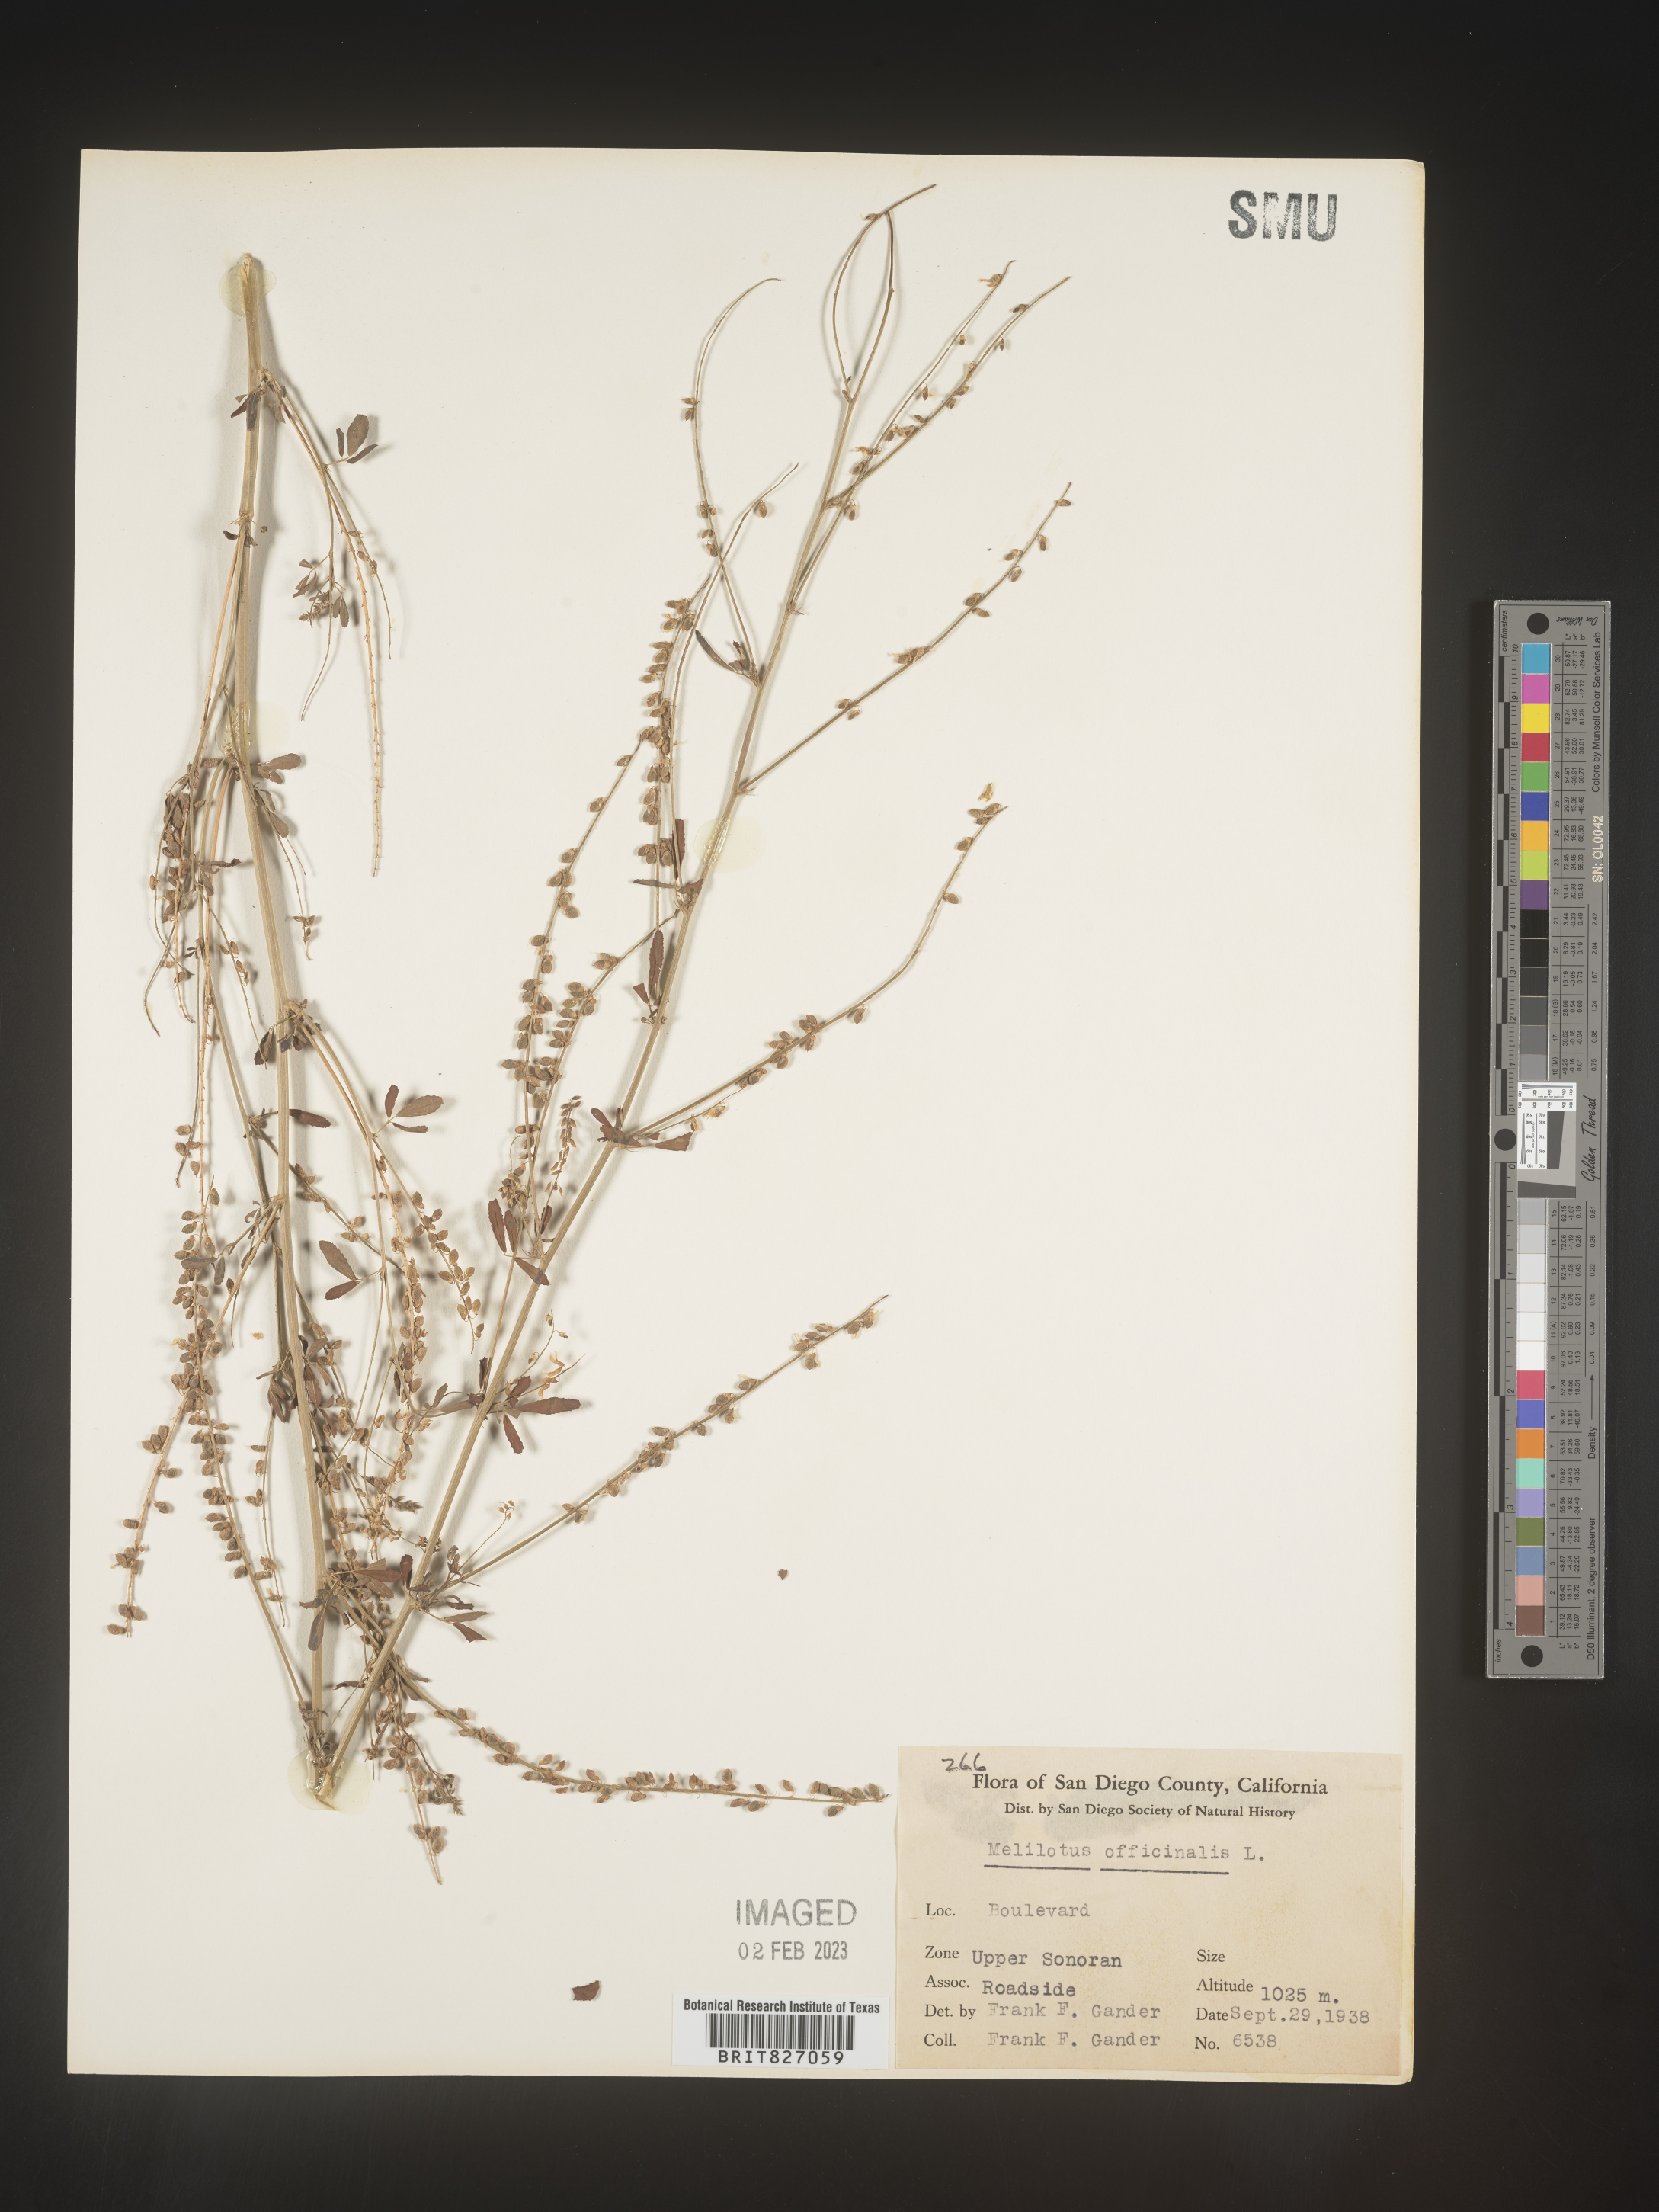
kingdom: Plantae
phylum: Tracheophyta
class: Magnoliopsida
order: Fabales
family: Fabaceae
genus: Melilotus
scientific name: Melilotus officinalis
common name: Sweetclover
